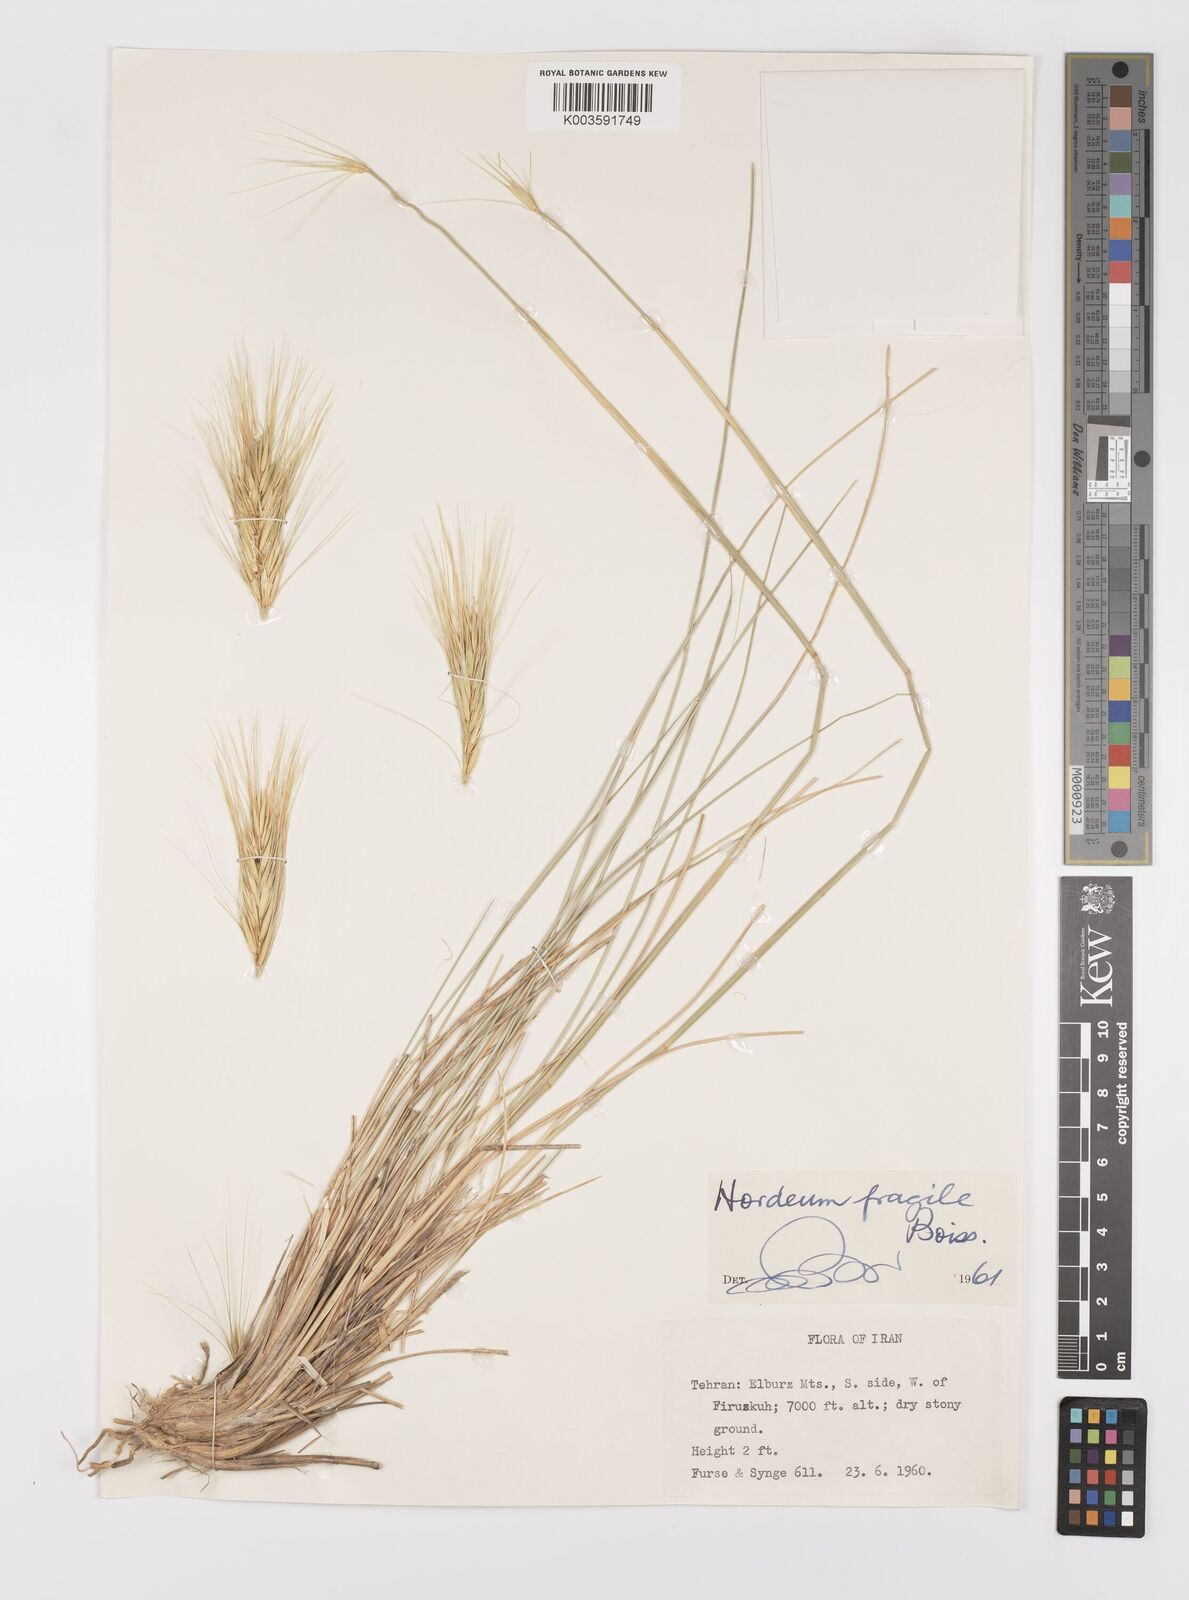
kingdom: Plantae
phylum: Tracheophyta
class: Liliopsida
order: Poales
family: Poaceae
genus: Psathyrostachys
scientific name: Psathyrostachys fragilis
